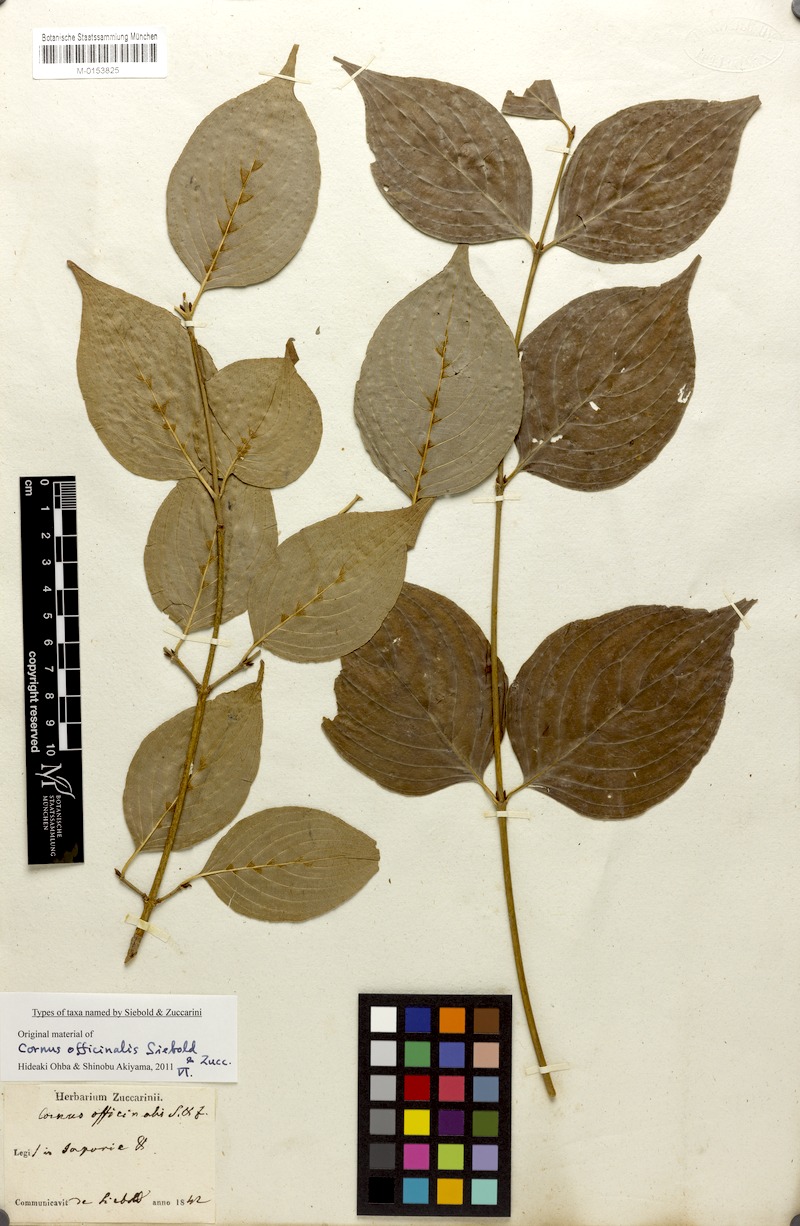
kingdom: Plantae
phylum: Tracheophyta
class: Magnoliopsida
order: Cornales
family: Cornaceae
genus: Cornus
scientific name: Cornus officinalis
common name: Asiatic dogwood
